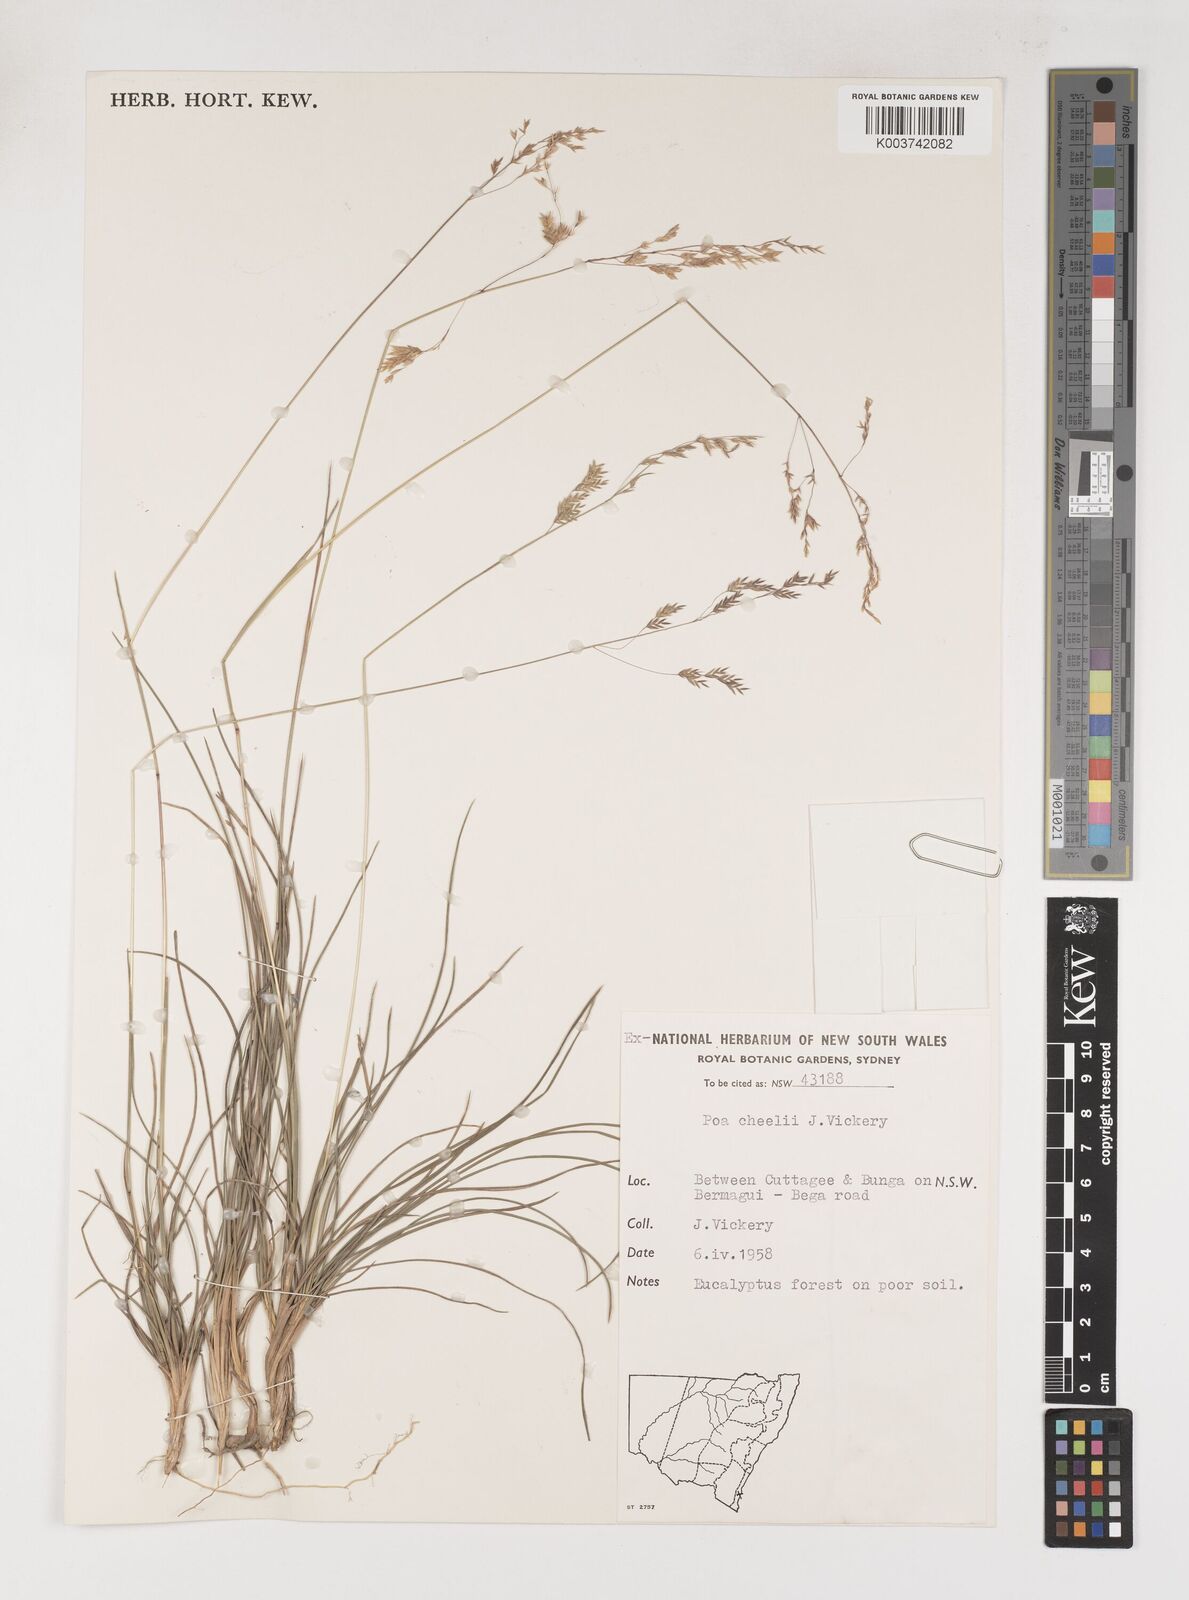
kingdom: Plantae
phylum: Tracheophyta
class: Liliopsida
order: Poales
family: Poaceae
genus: Poa
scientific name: Poa cheelii
